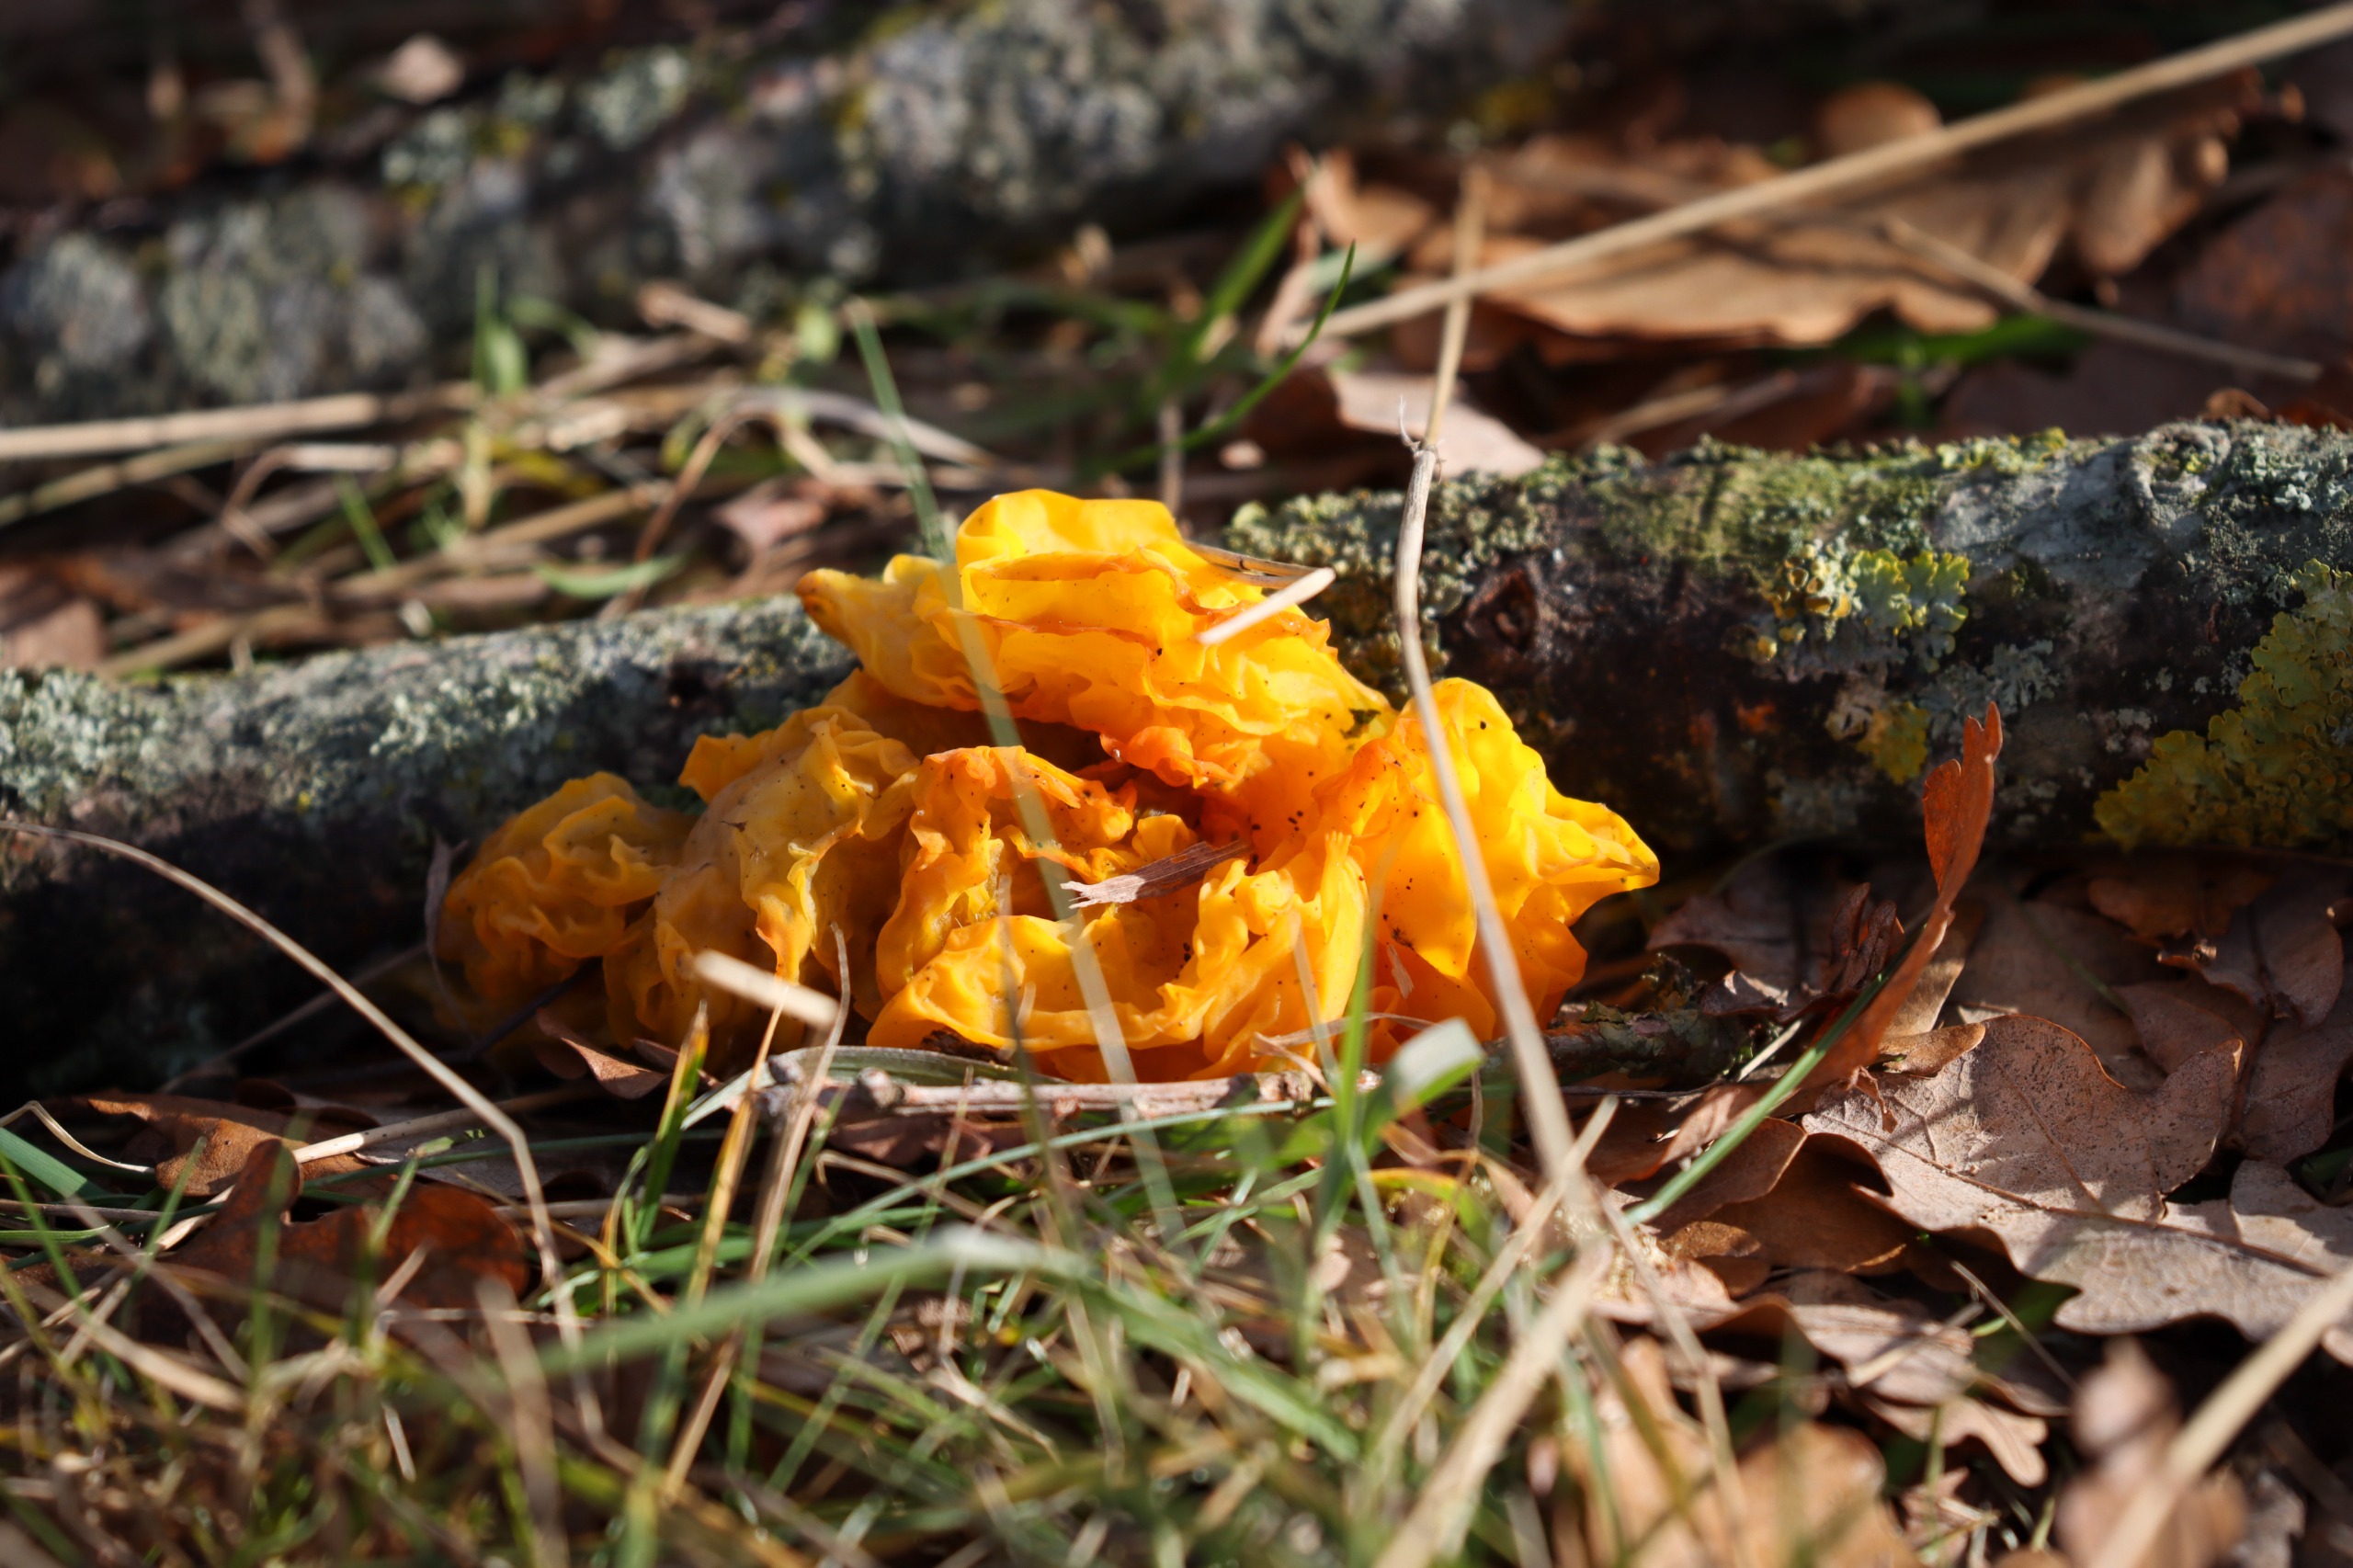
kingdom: Fungi
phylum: Basidiomycota
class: Tremellomycetes
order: Tremellales
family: Tremellaceae
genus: Tremella
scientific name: Tremella mesenterica
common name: Gul bævresvamp
